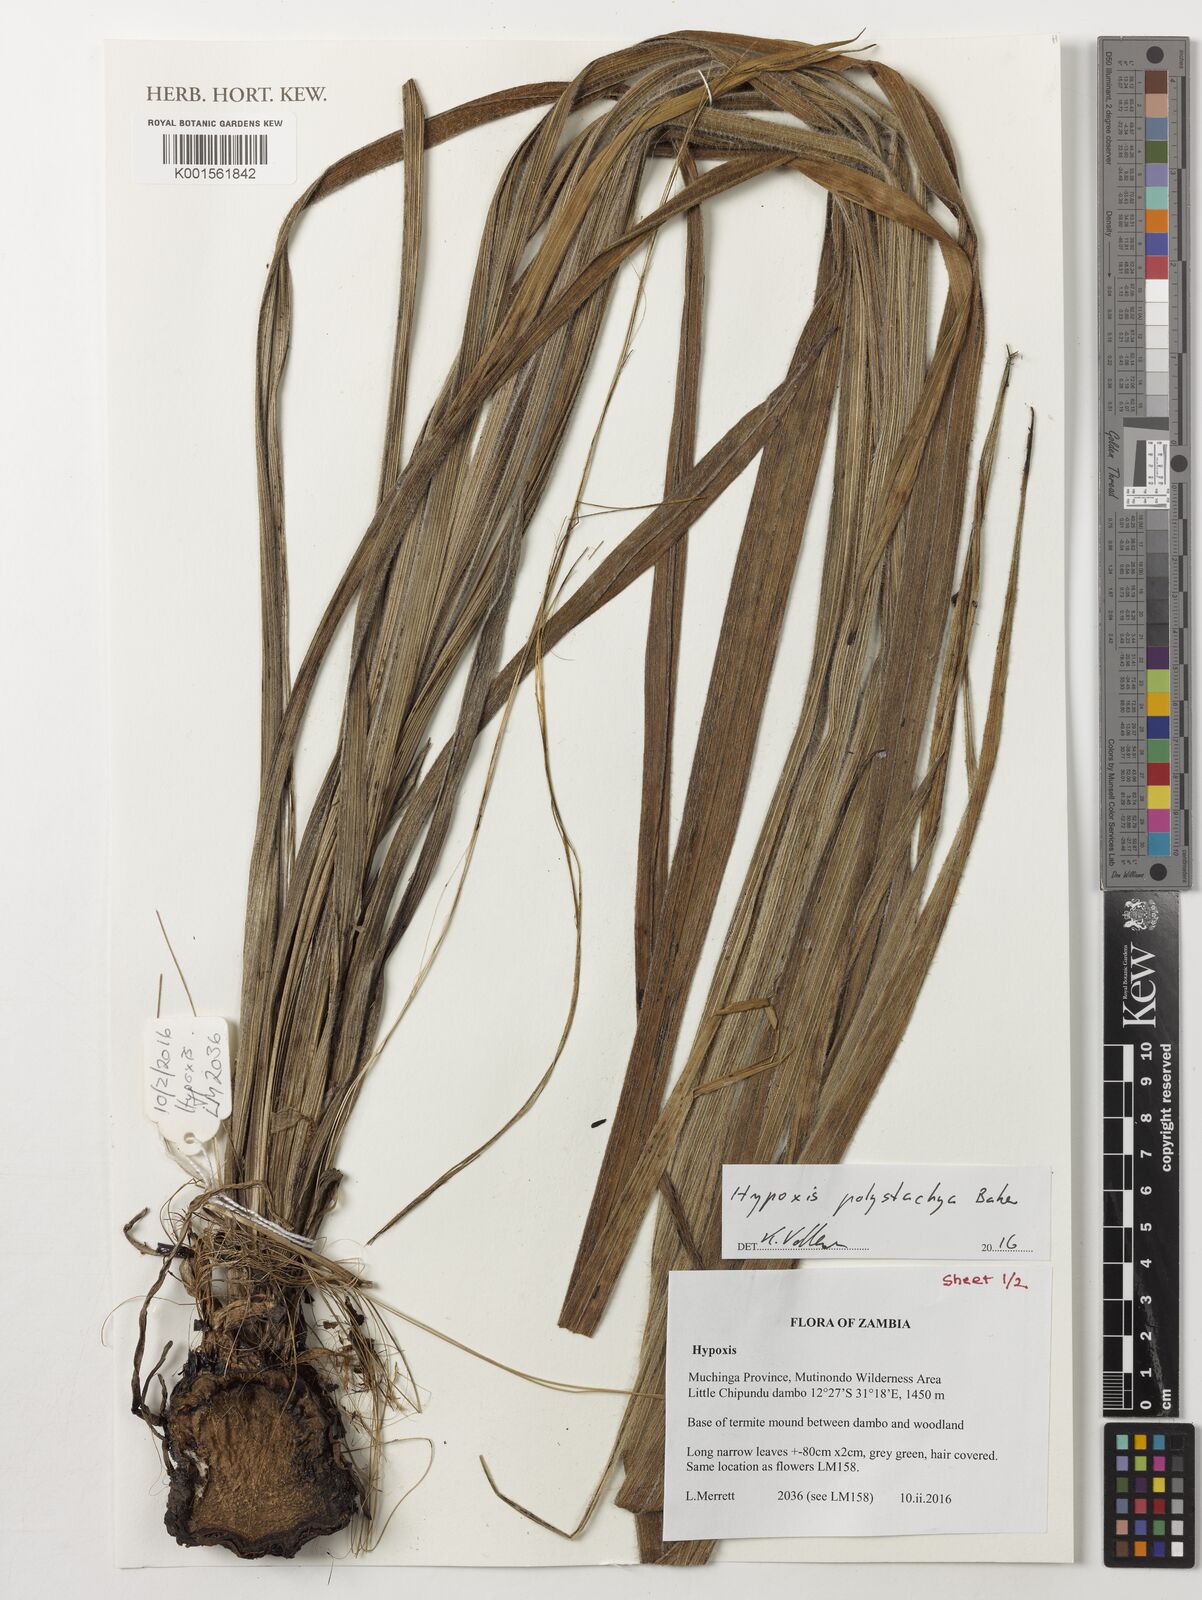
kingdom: Plantae
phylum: Tracheophyta
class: Liliopsida
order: Asparagales
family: Hypoxidaceae
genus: Hypoxis
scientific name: Hypoxis polystachya
